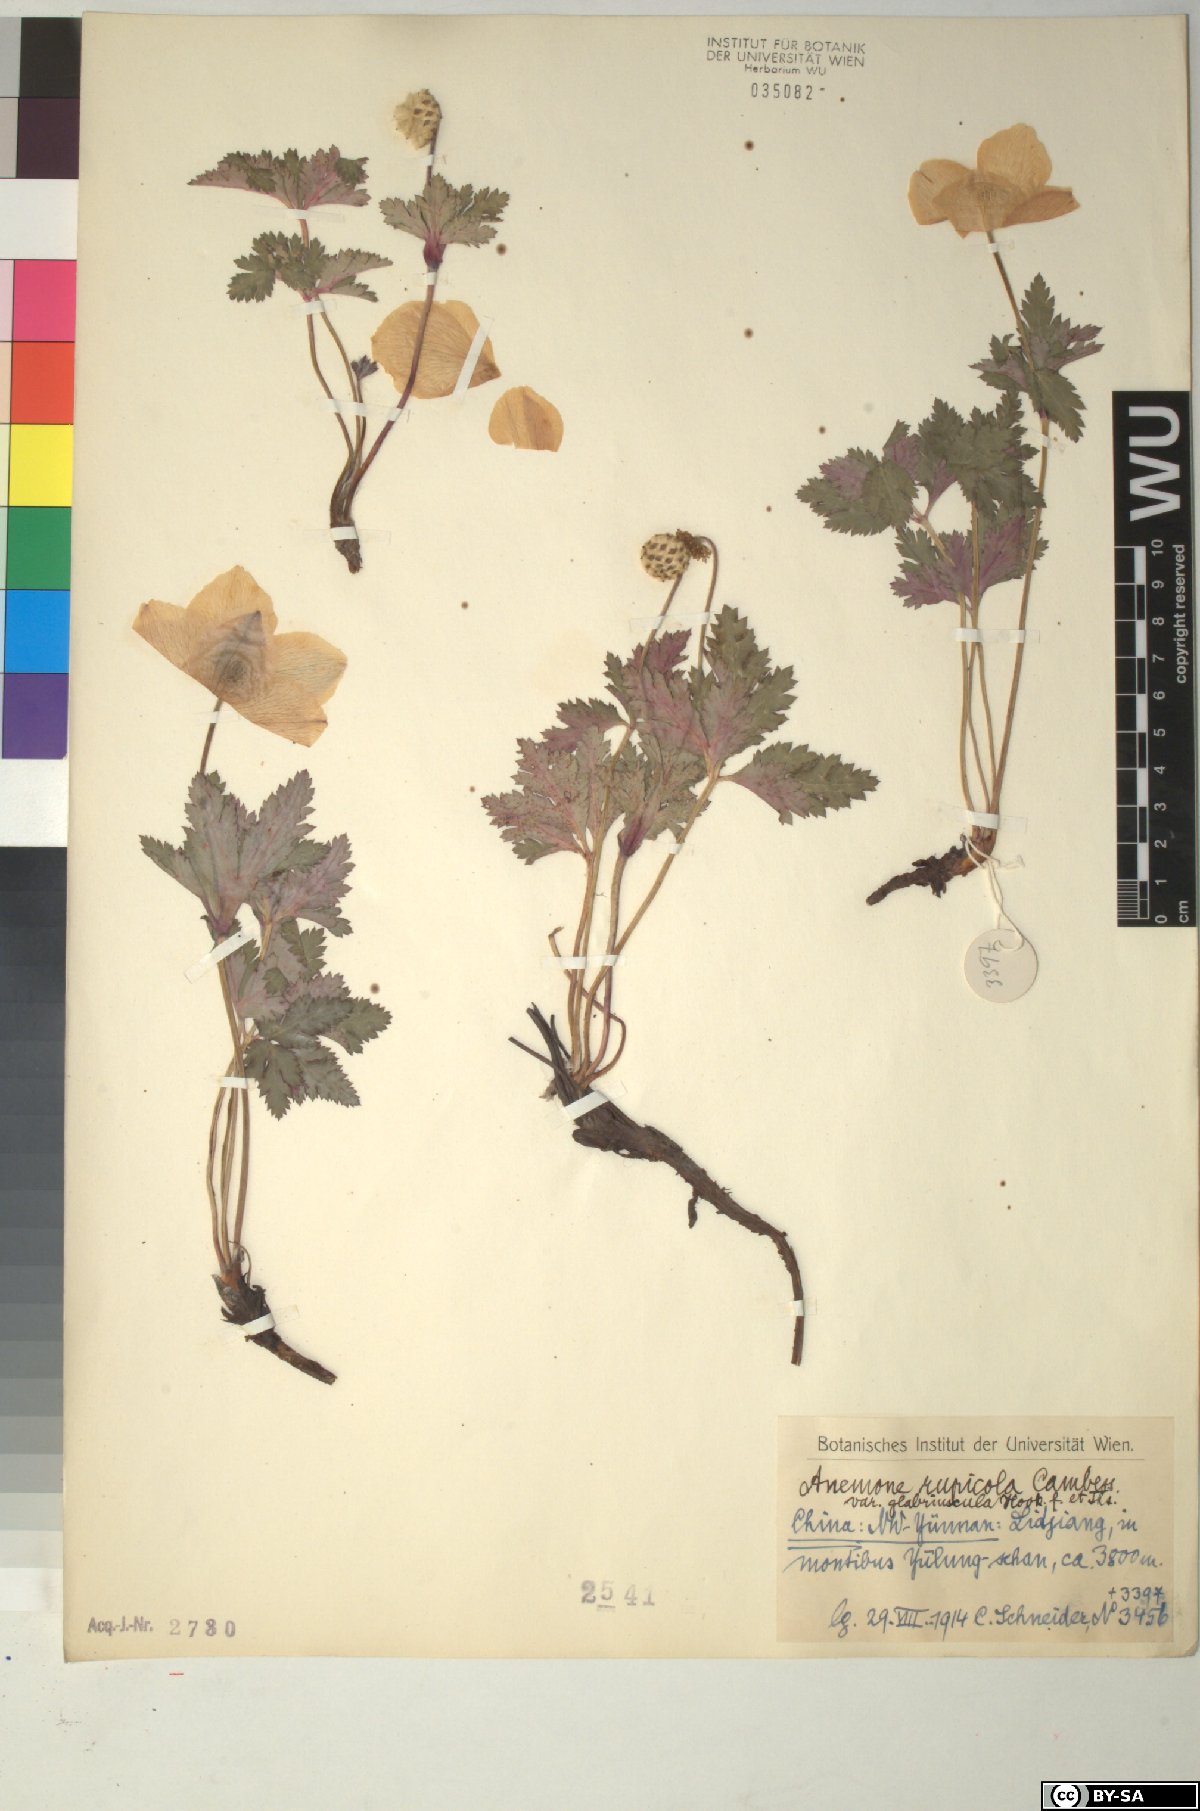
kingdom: Plantae
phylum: Tracheophyta
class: Magnoliopsida
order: Ranunculales
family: Ranunculaceae
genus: Eriocapitella
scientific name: Eriocapitella rupicola
